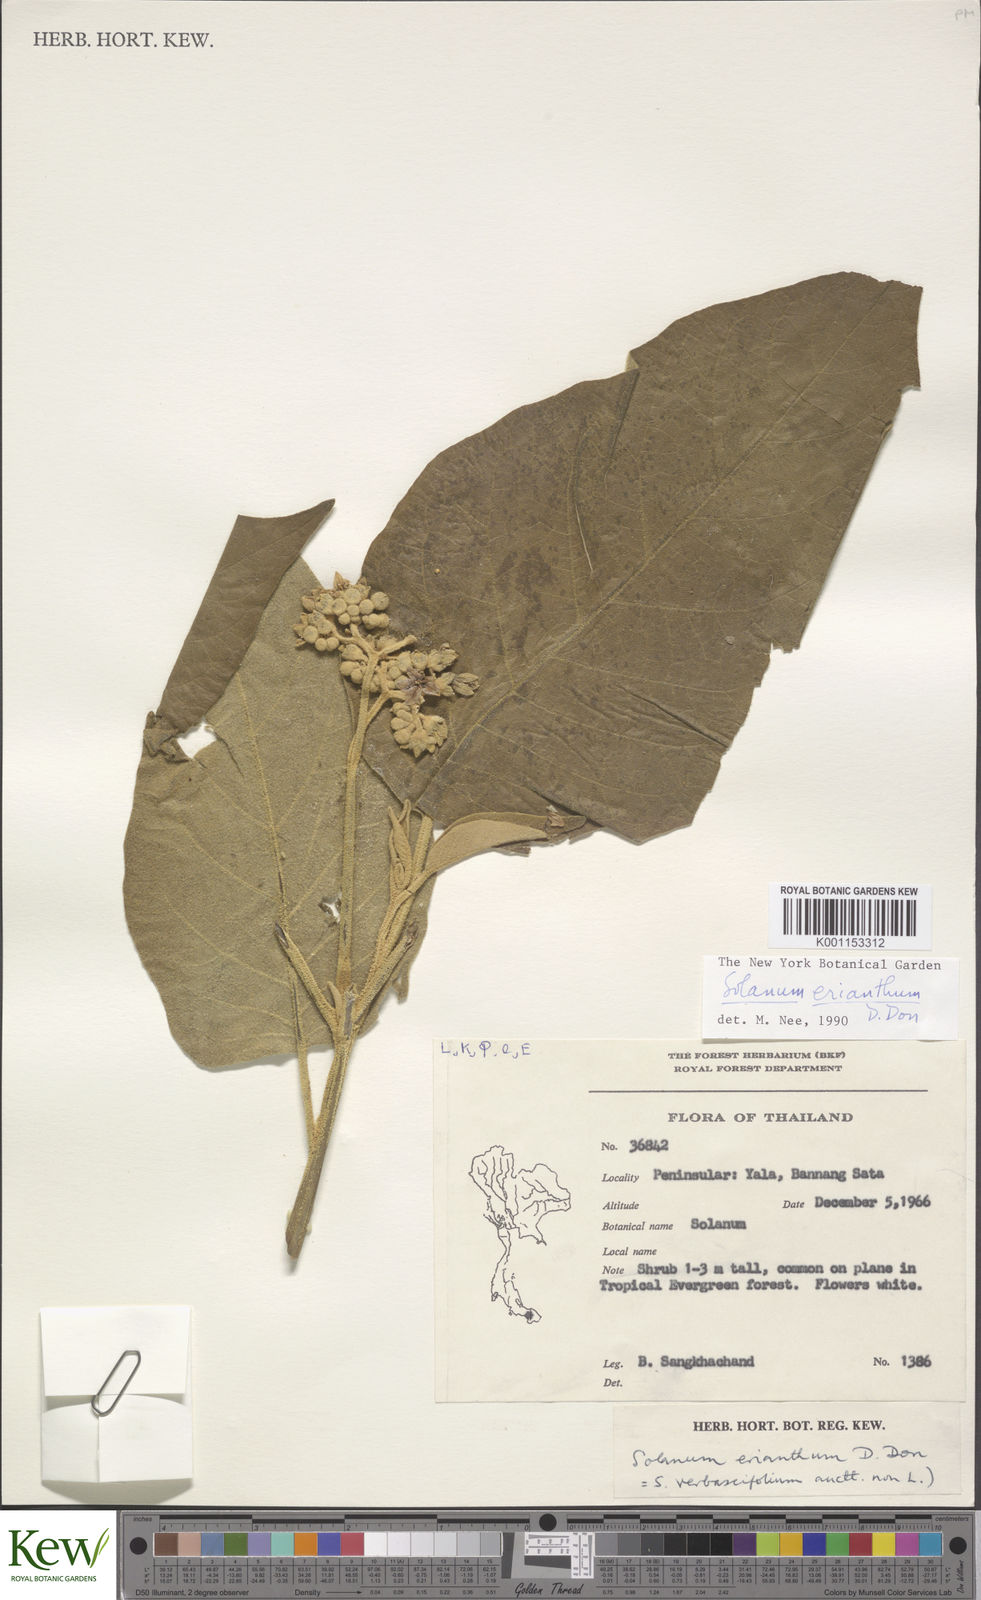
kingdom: Plantae
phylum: Tracheophyta
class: Magnoliopsida
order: Solanales
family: Solanaceae
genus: Solanum
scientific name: Solanum erianthum
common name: Tobacco-tree
